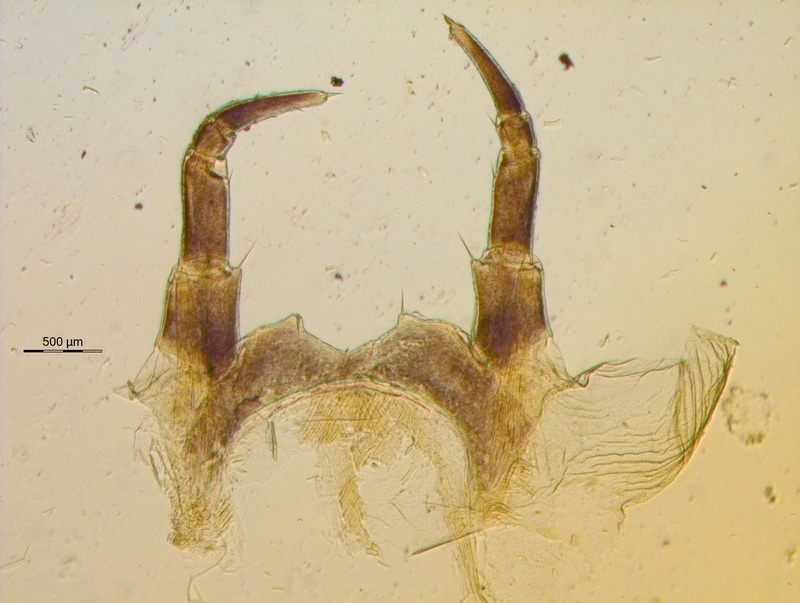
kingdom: Animalia
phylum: Arthropoda
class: Diplopoda
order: Glomerida
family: Glomeridae
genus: Glomeris
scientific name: Glomeris hexasticha
